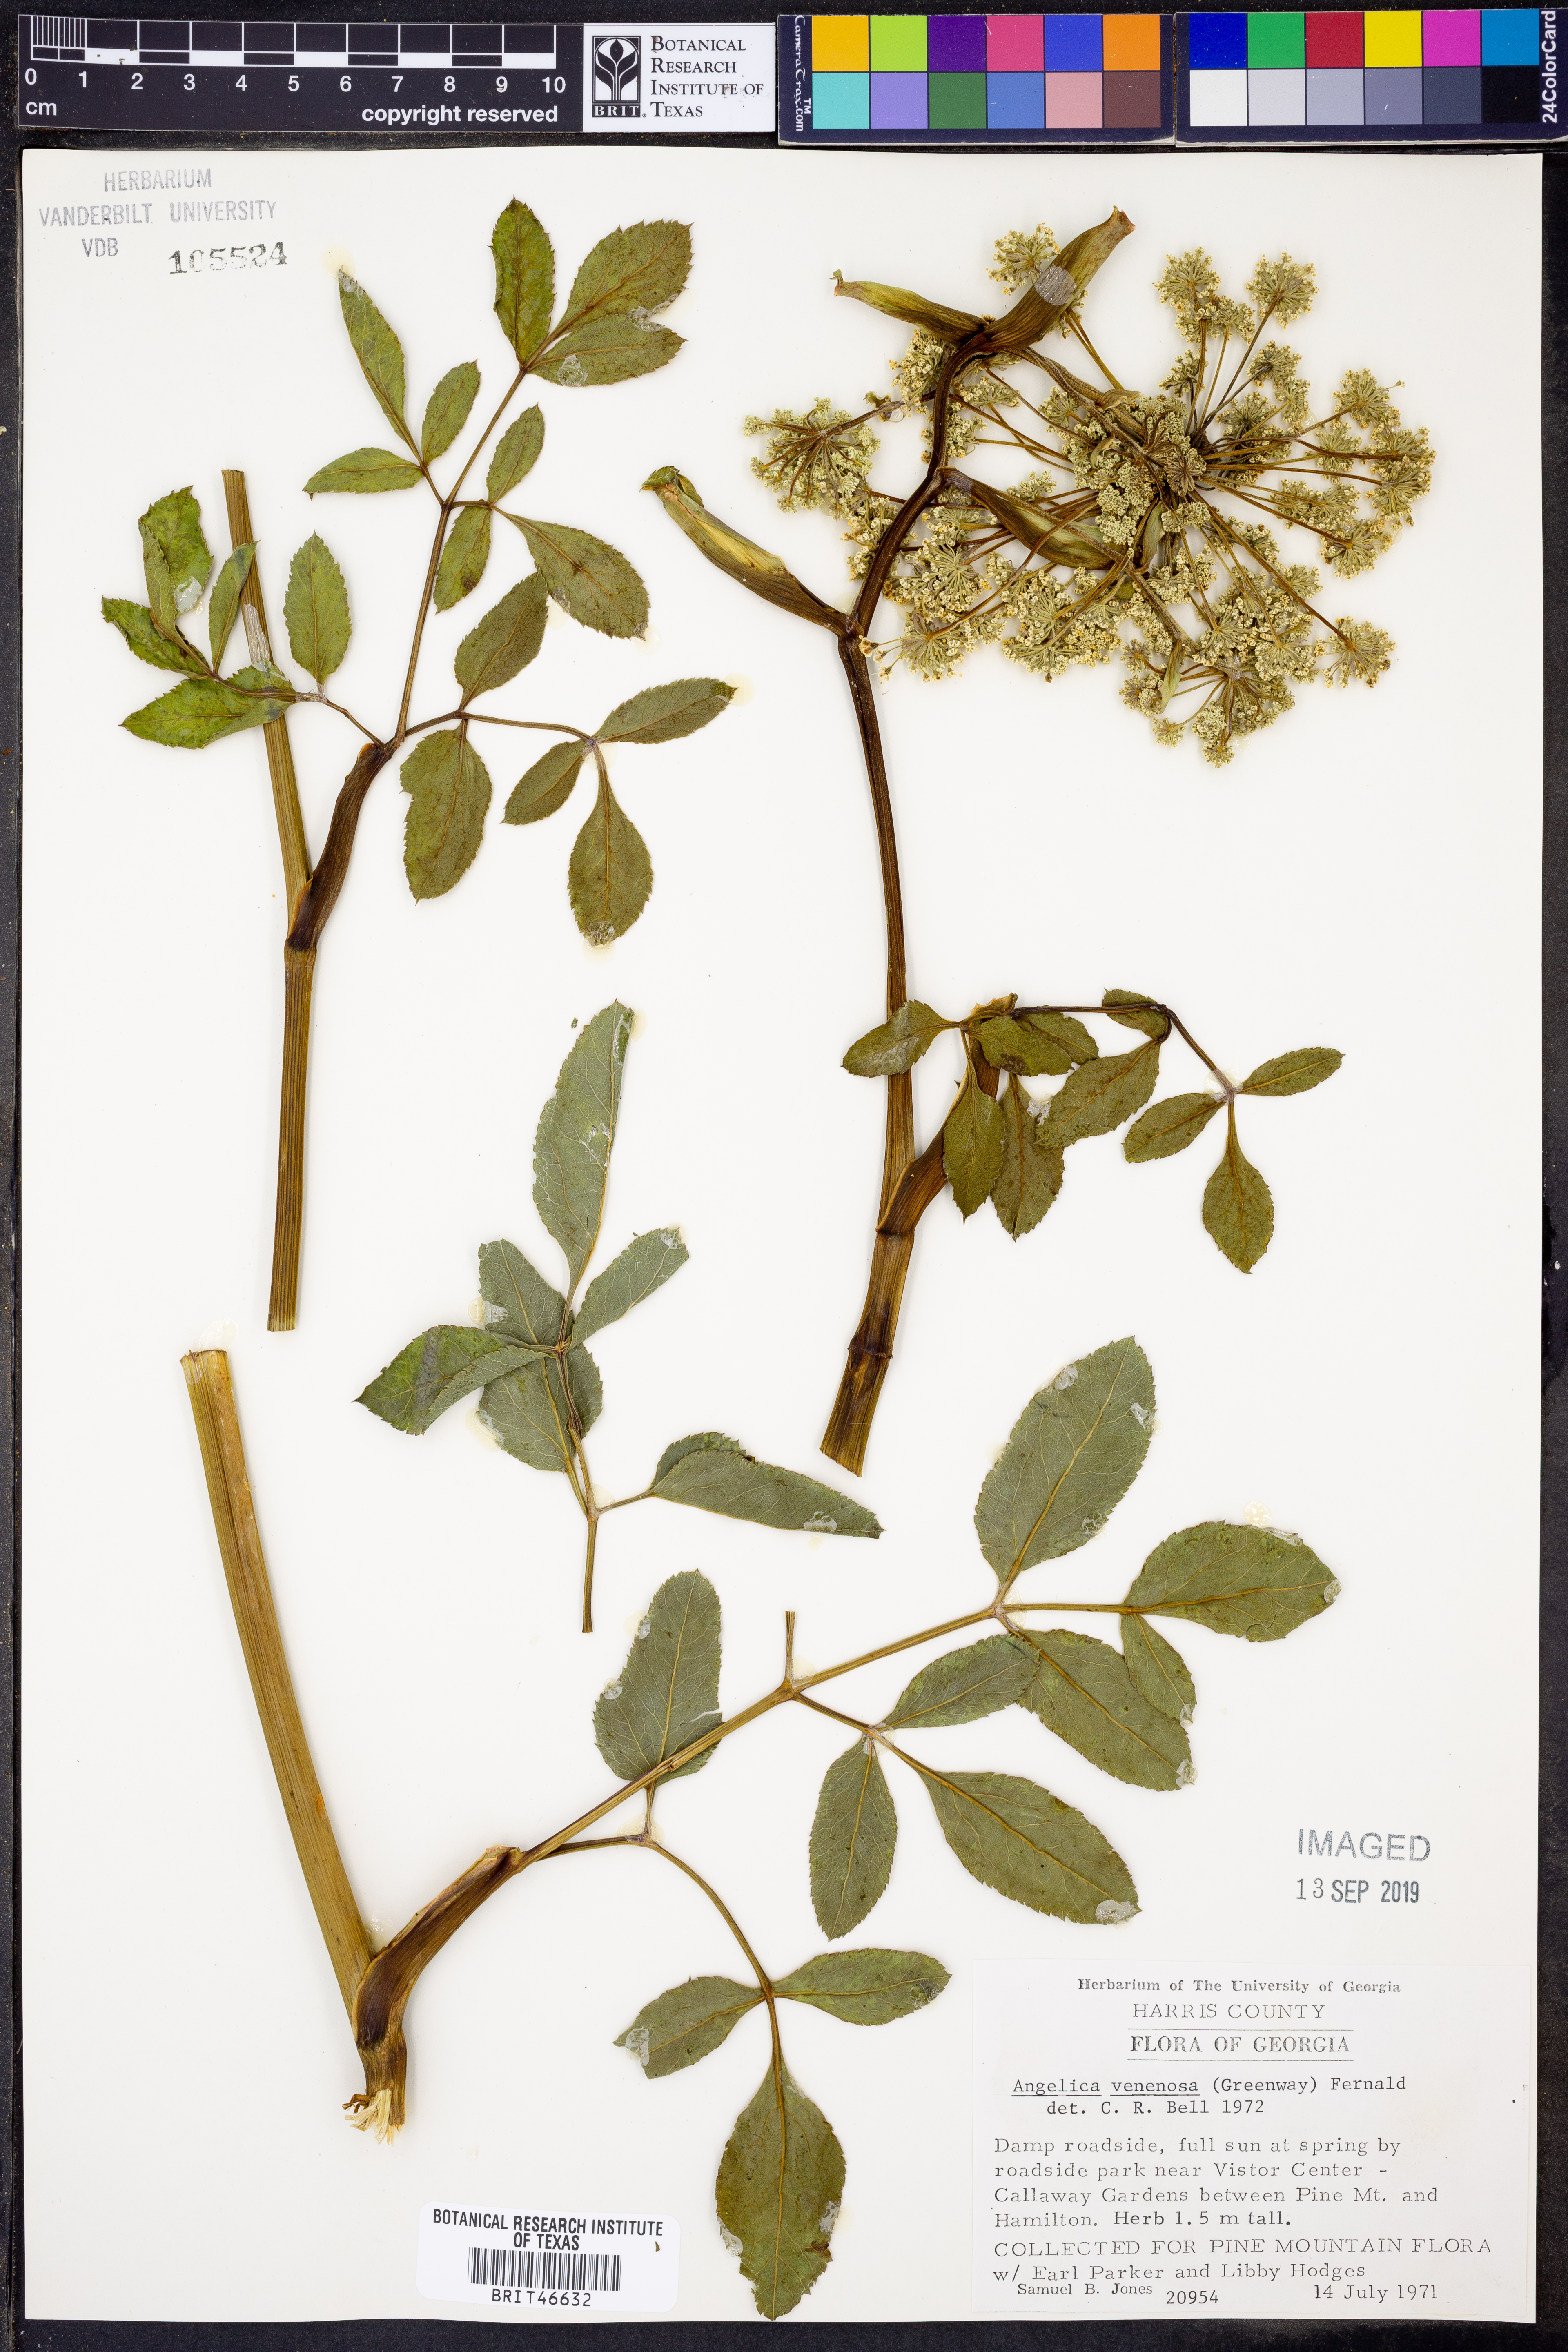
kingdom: Plantae
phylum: Tracheophyta
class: Magnoliopsida
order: Apiales
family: Apiaceae
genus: Angelica
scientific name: Angelica venenosa
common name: Hairy angelica
